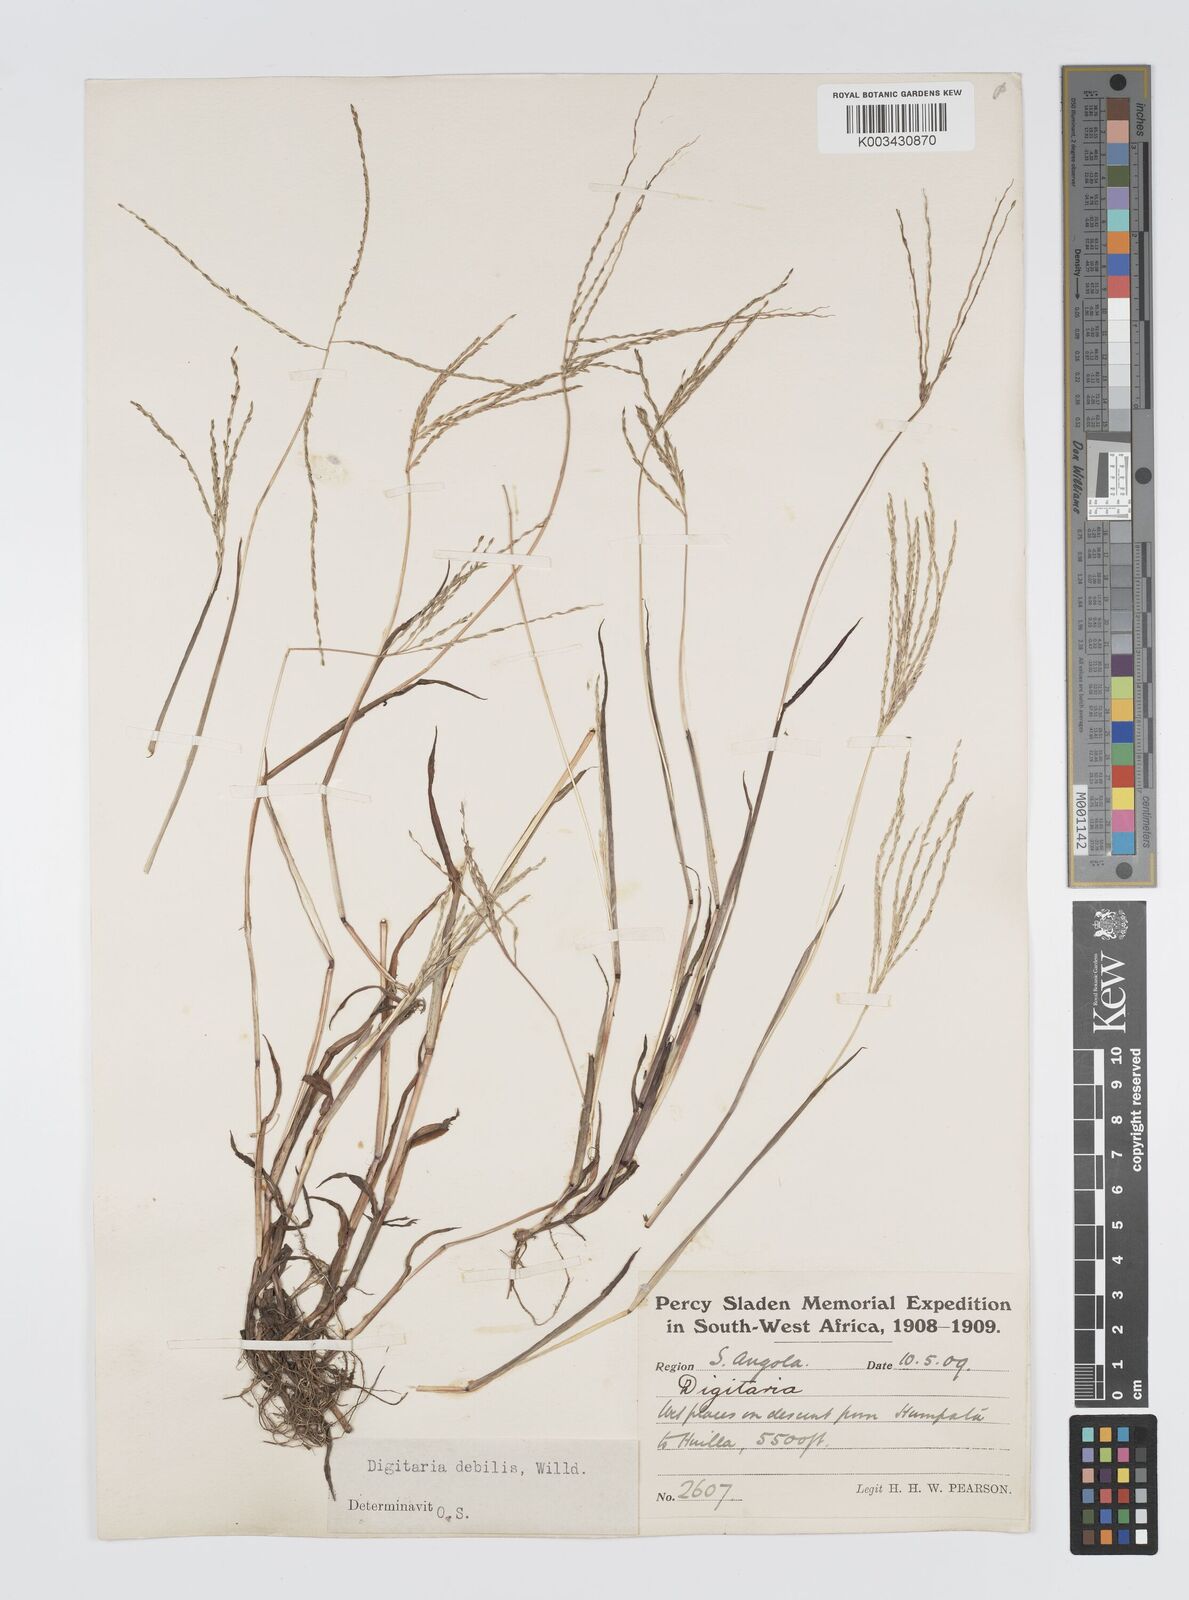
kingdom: Plantae
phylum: Tracheophyta
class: Liliopsida
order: Poales
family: Poaceae
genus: Digitaria
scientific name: Digitaria debilis
